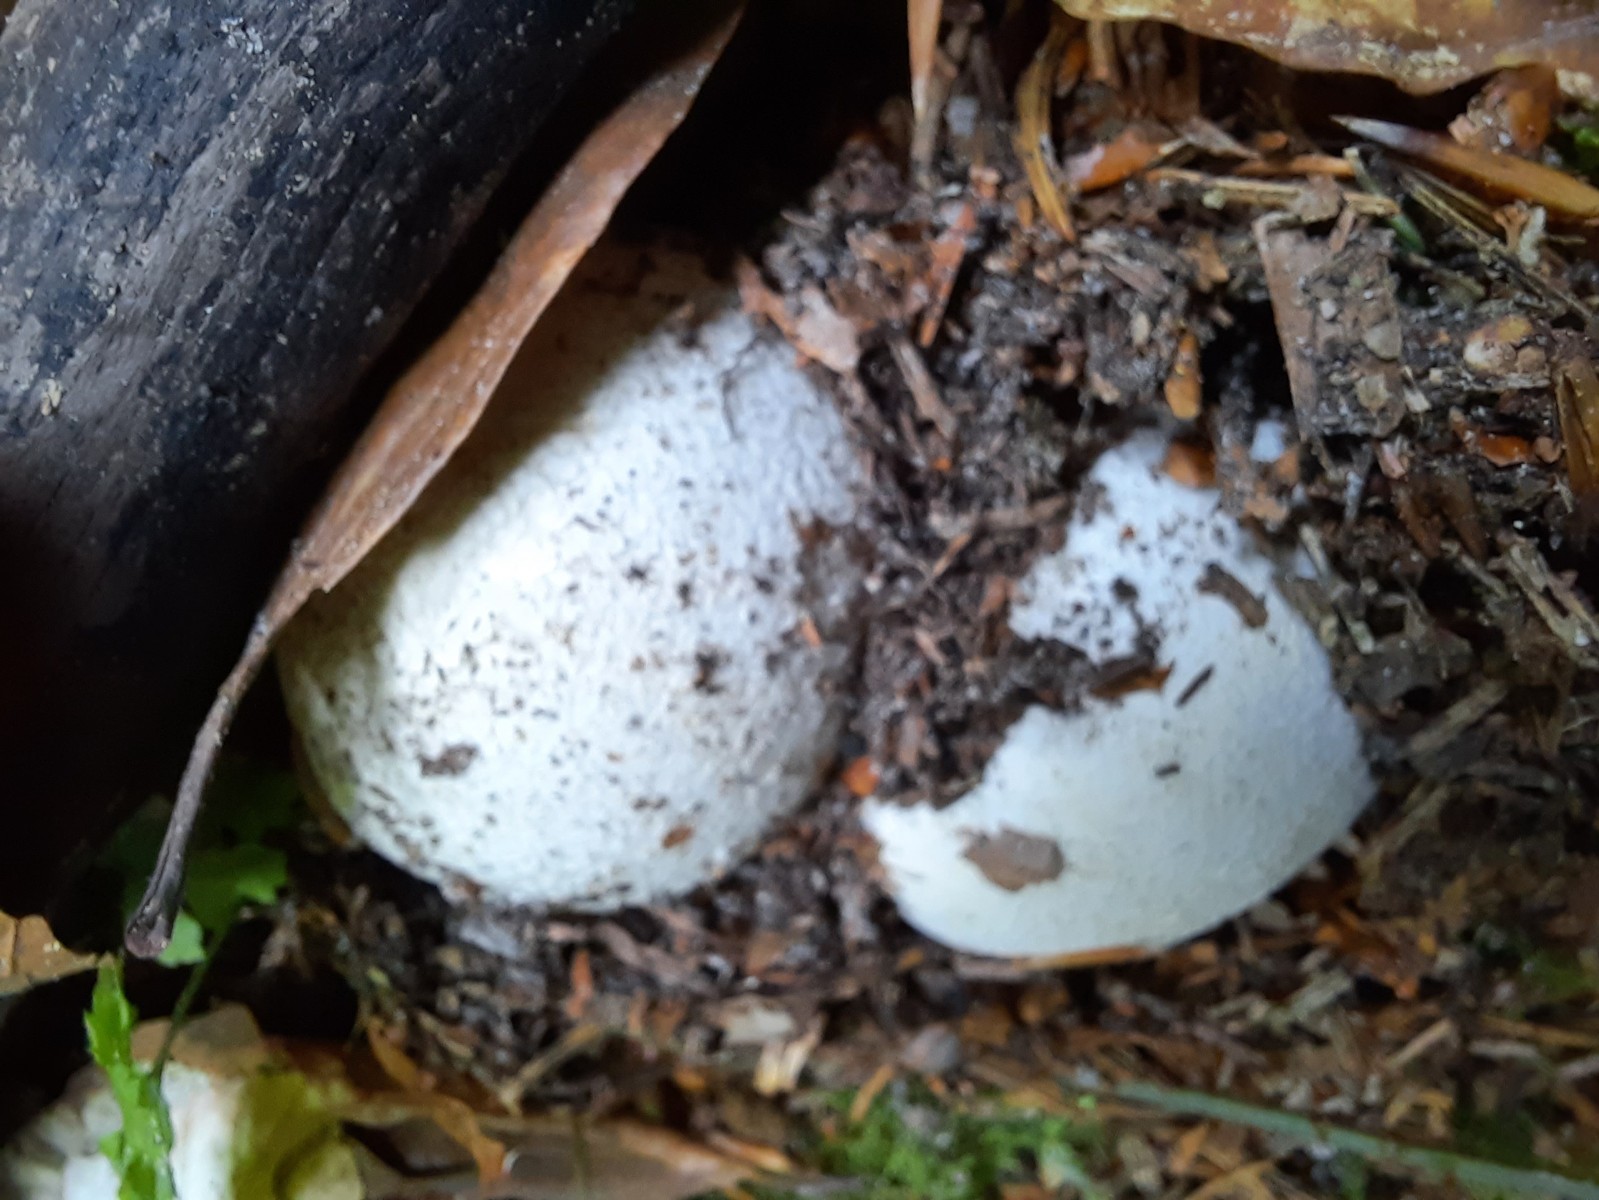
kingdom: Fungi
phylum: Basidiomycota
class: Agaricomycetes
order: Phallales
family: Phallaceae
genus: Phallus
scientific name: Phallus impudicus
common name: almindelig stinksvamp
